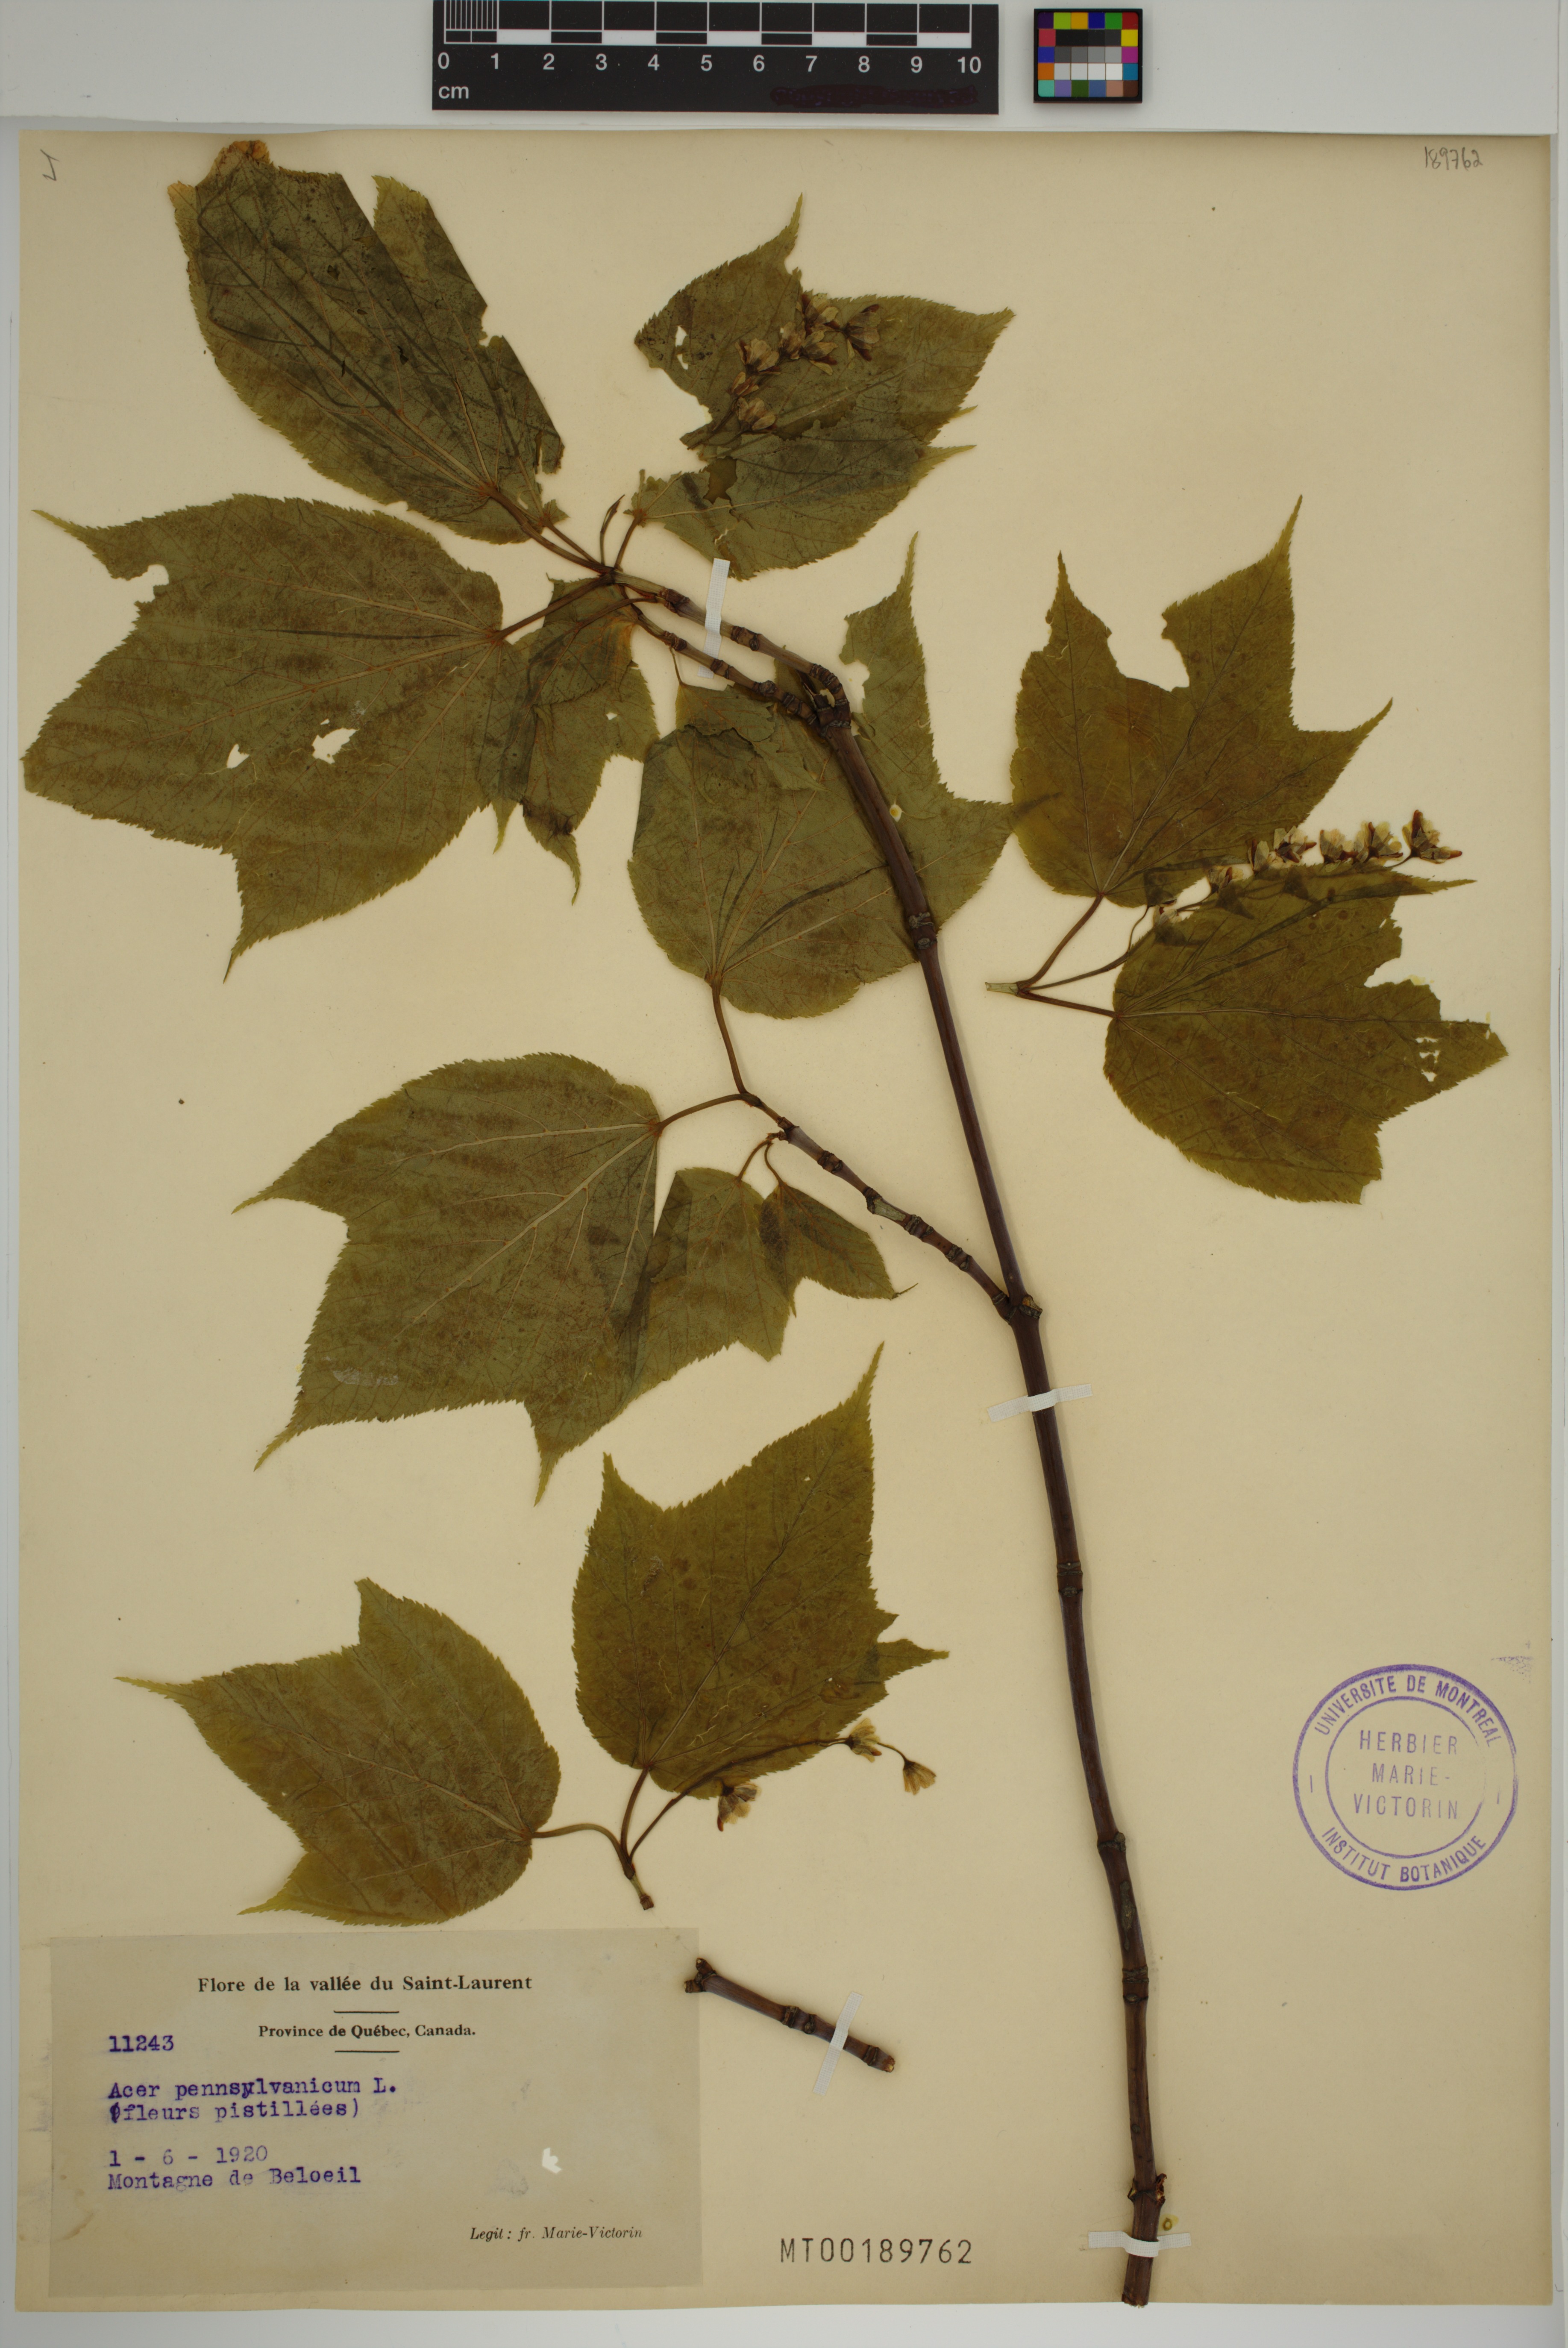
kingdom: Plantae
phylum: Tracheophyta
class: Magnoliopsida
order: Sapindales
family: Sapindaceae
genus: Acer
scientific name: Acer pensylvanicum
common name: Moosewood
